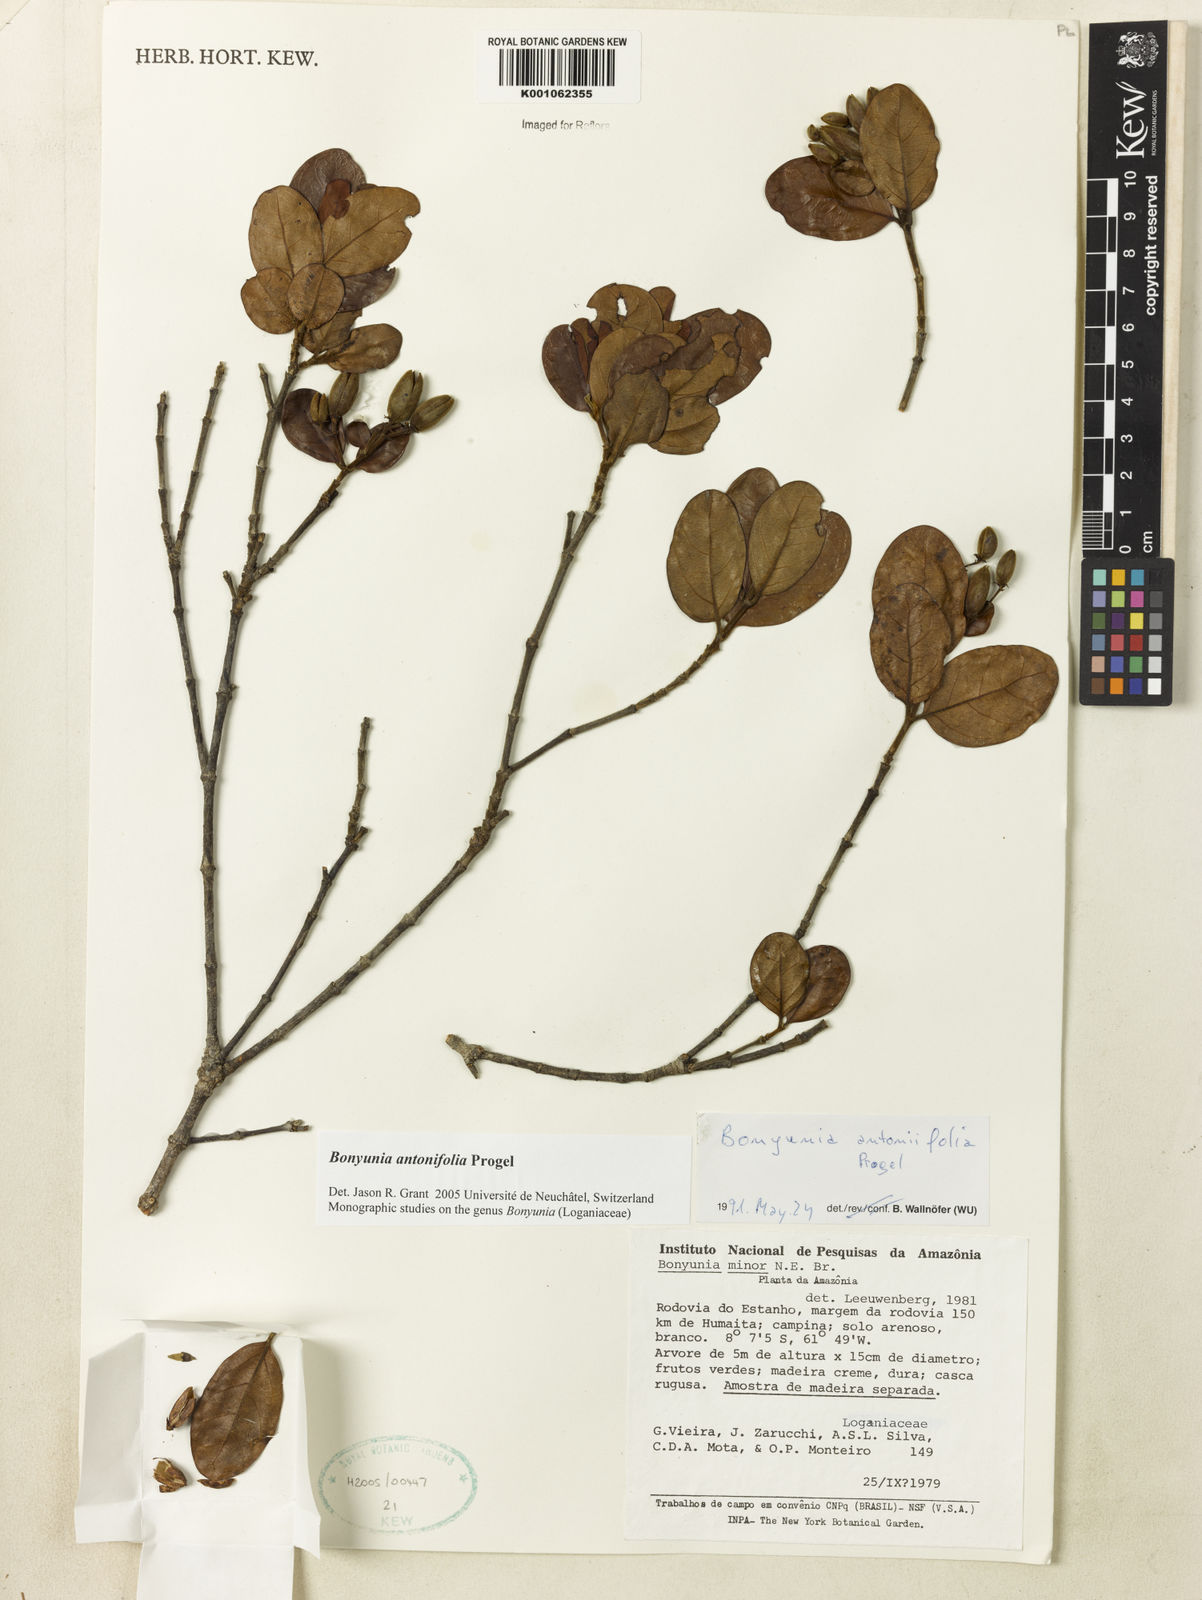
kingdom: Plantae
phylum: Tracheophyta
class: Magnoliopsida
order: Gentianales
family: Loganiaceae
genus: Bonyunia
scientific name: Bonyunia antoniifolia
